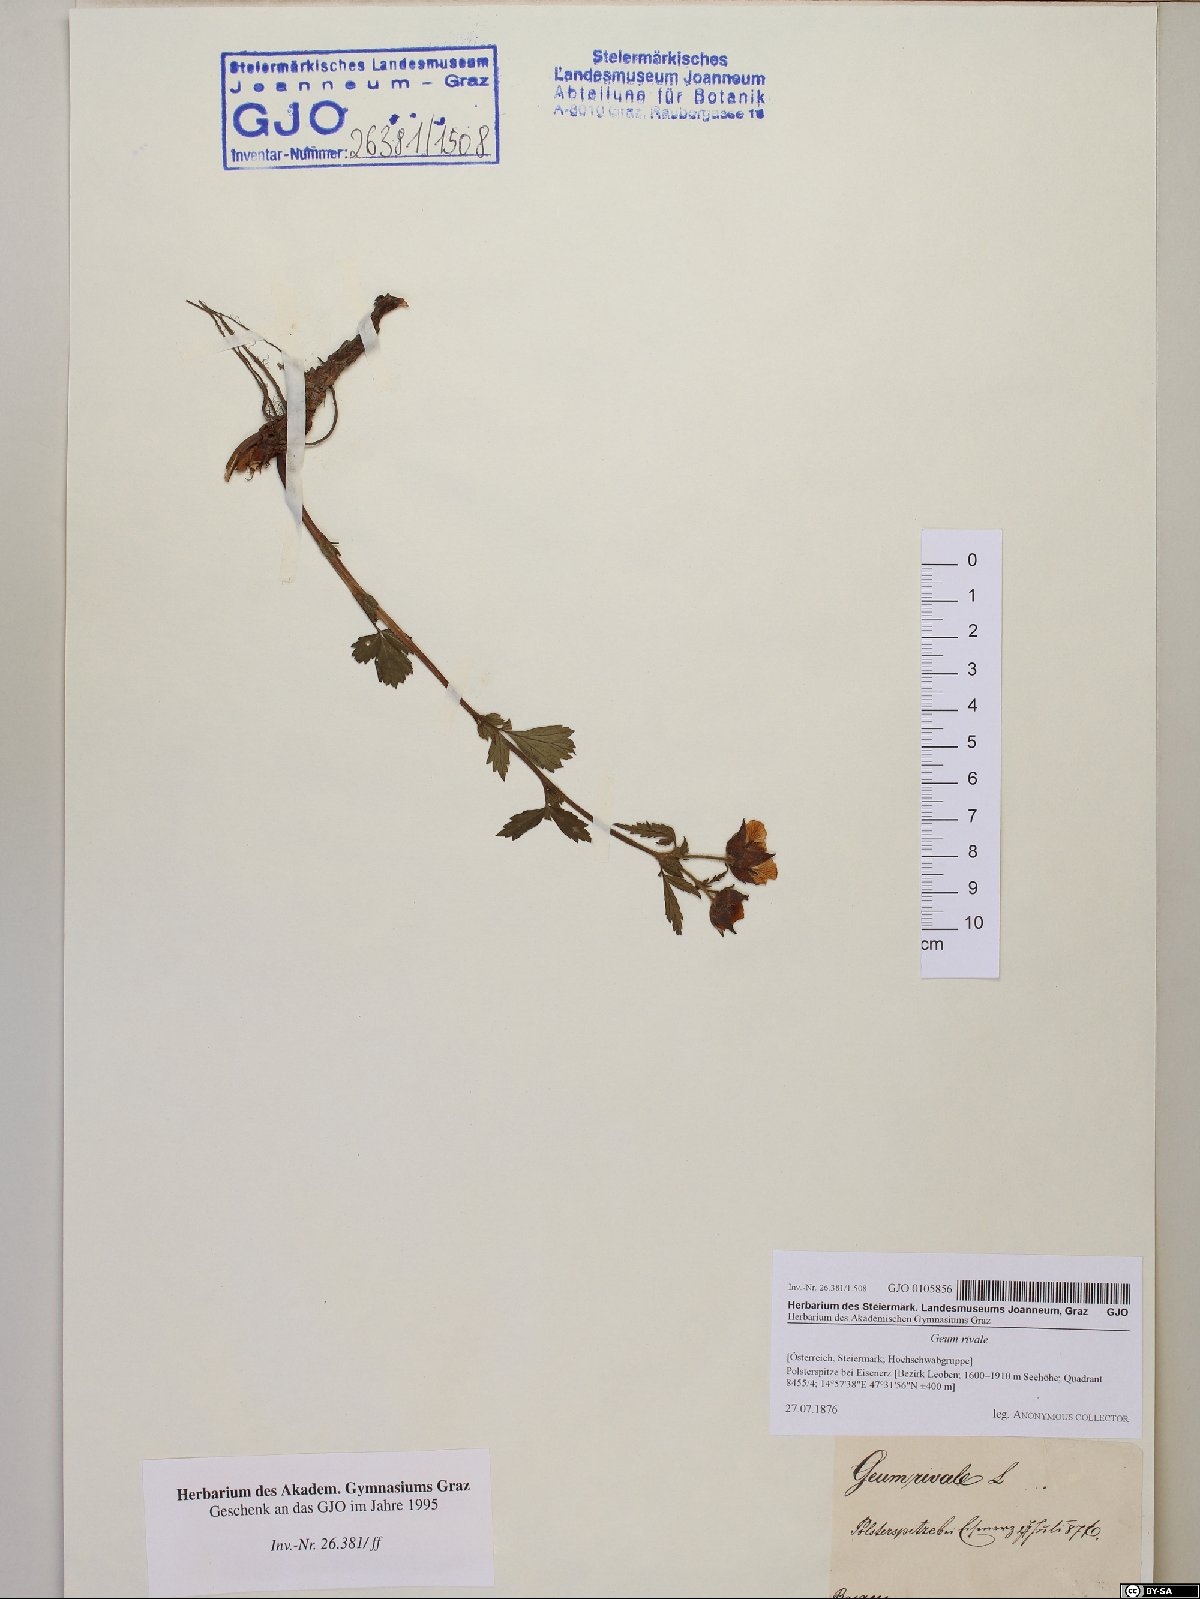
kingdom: Plantae
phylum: Tracheophyta
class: Magnoliopsida
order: Rosales
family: Rosaceae
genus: Geum
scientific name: Geum rivale
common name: Water avens
